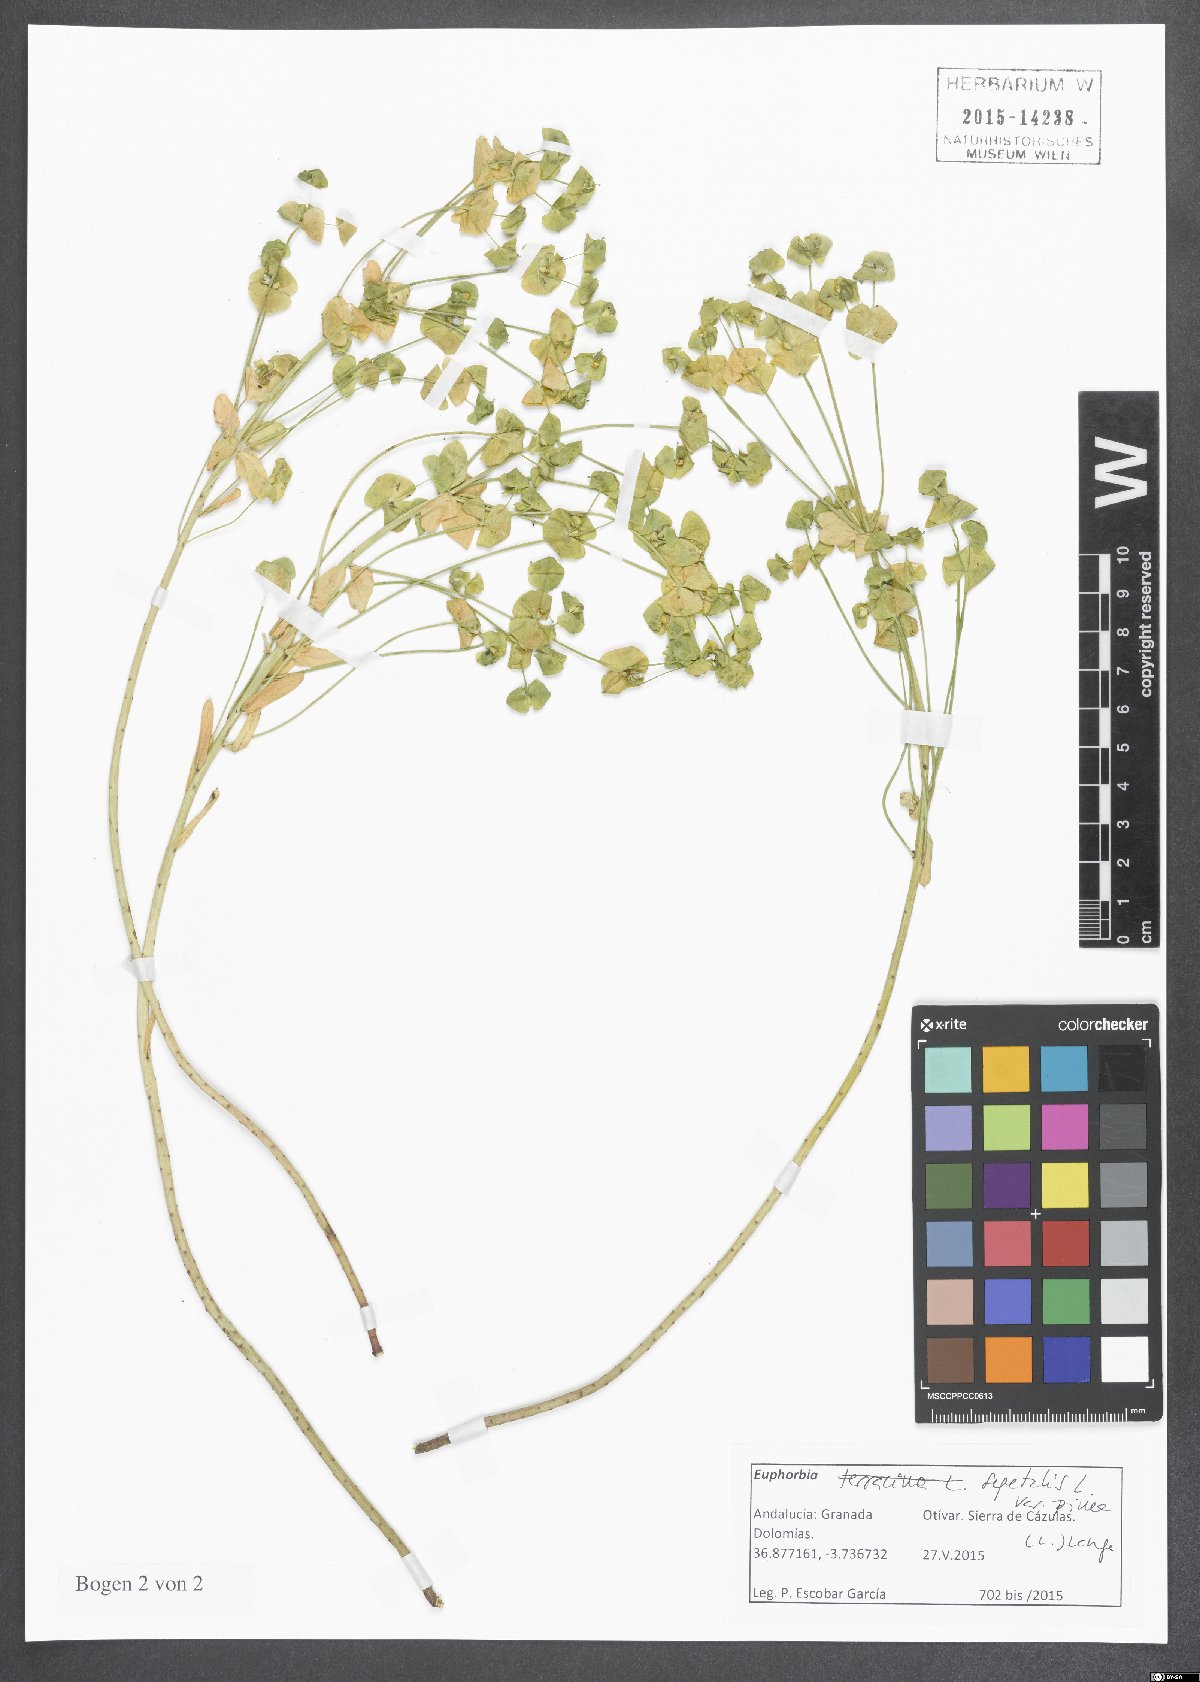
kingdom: Plantae
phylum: Tracheophyta
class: Magnoliopsida
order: Malpighiales
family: Euphorbiaceae
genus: Euphorbia
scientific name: Euphorbia segetalis
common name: Corn spurge
